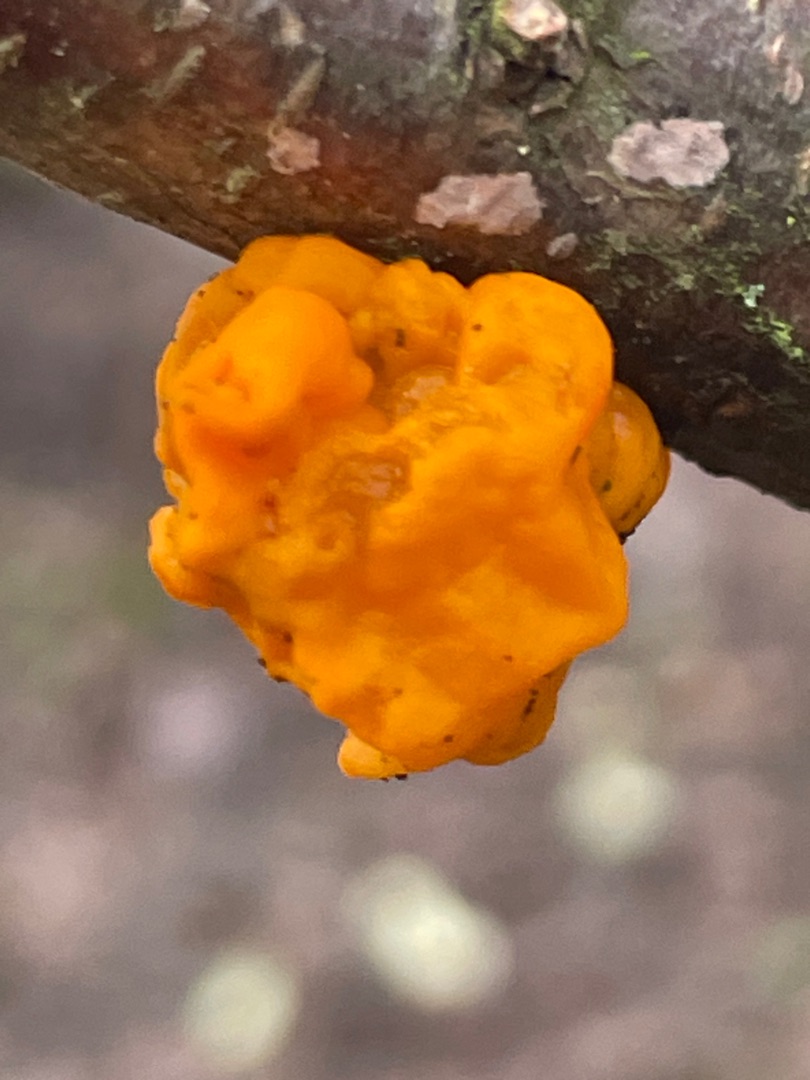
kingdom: Fungi
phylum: Basidiomycota
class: Tremellomycetes
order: Tremellales
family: Tremellaceae
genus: Tremella
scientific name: Tremella mesenterica
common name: Gul bævresvamp
